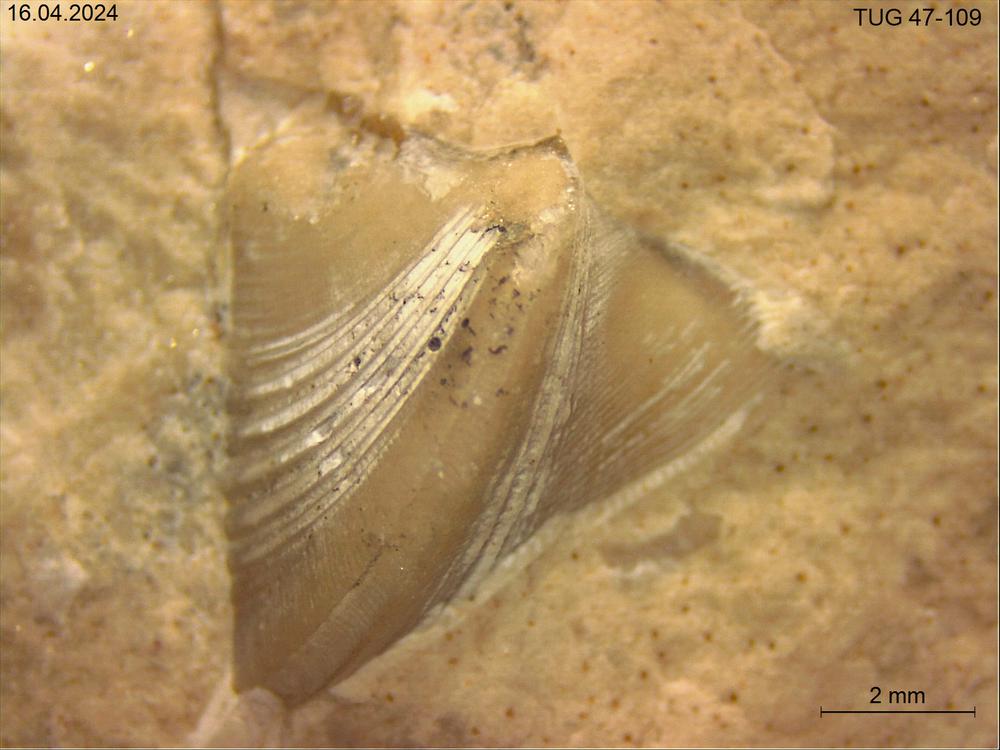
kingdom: Animalia
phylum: Mollusca
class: Rostroconchia
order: Conocardiida
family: Hippocardiidae
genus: Hippocardia
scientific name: Hippocardia
